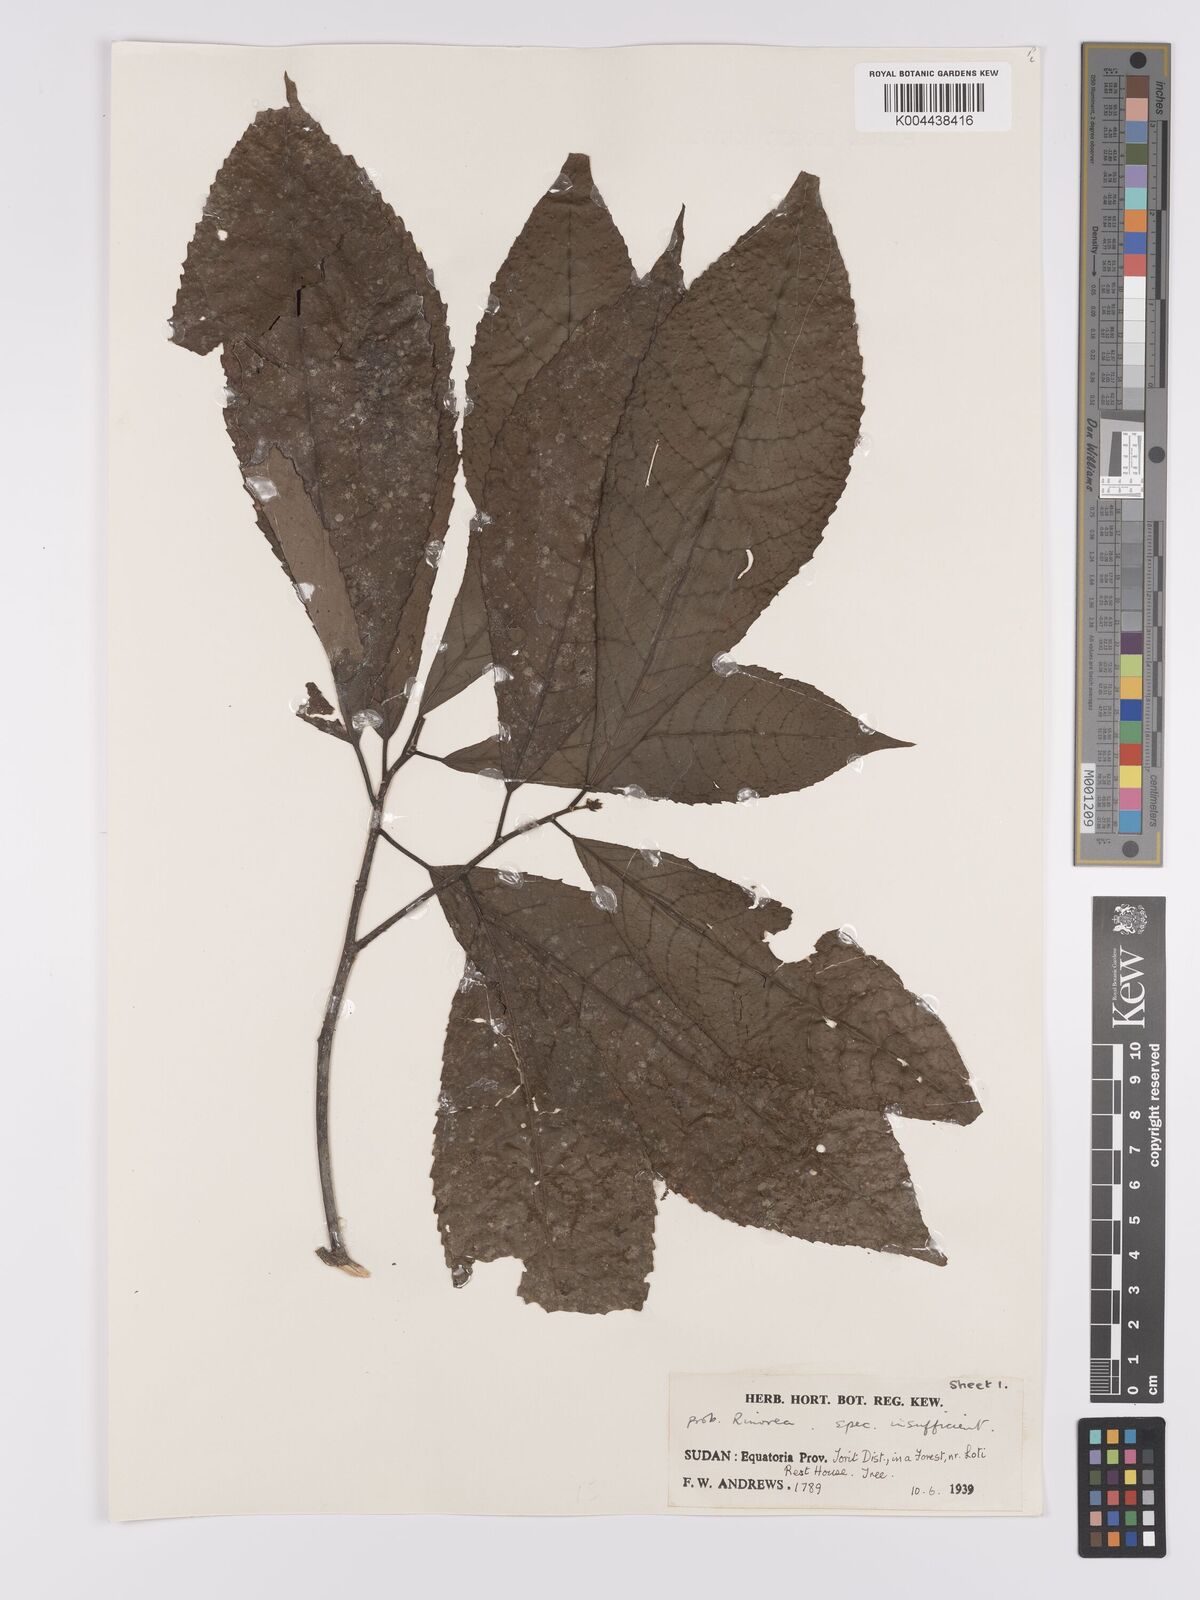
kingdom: Plantae
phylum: Tracheophyta
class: Magnoliopsida
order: Apiales
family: Pittosporaceae
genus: Marianthus
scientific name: Marianthus coeruleopunctatus
